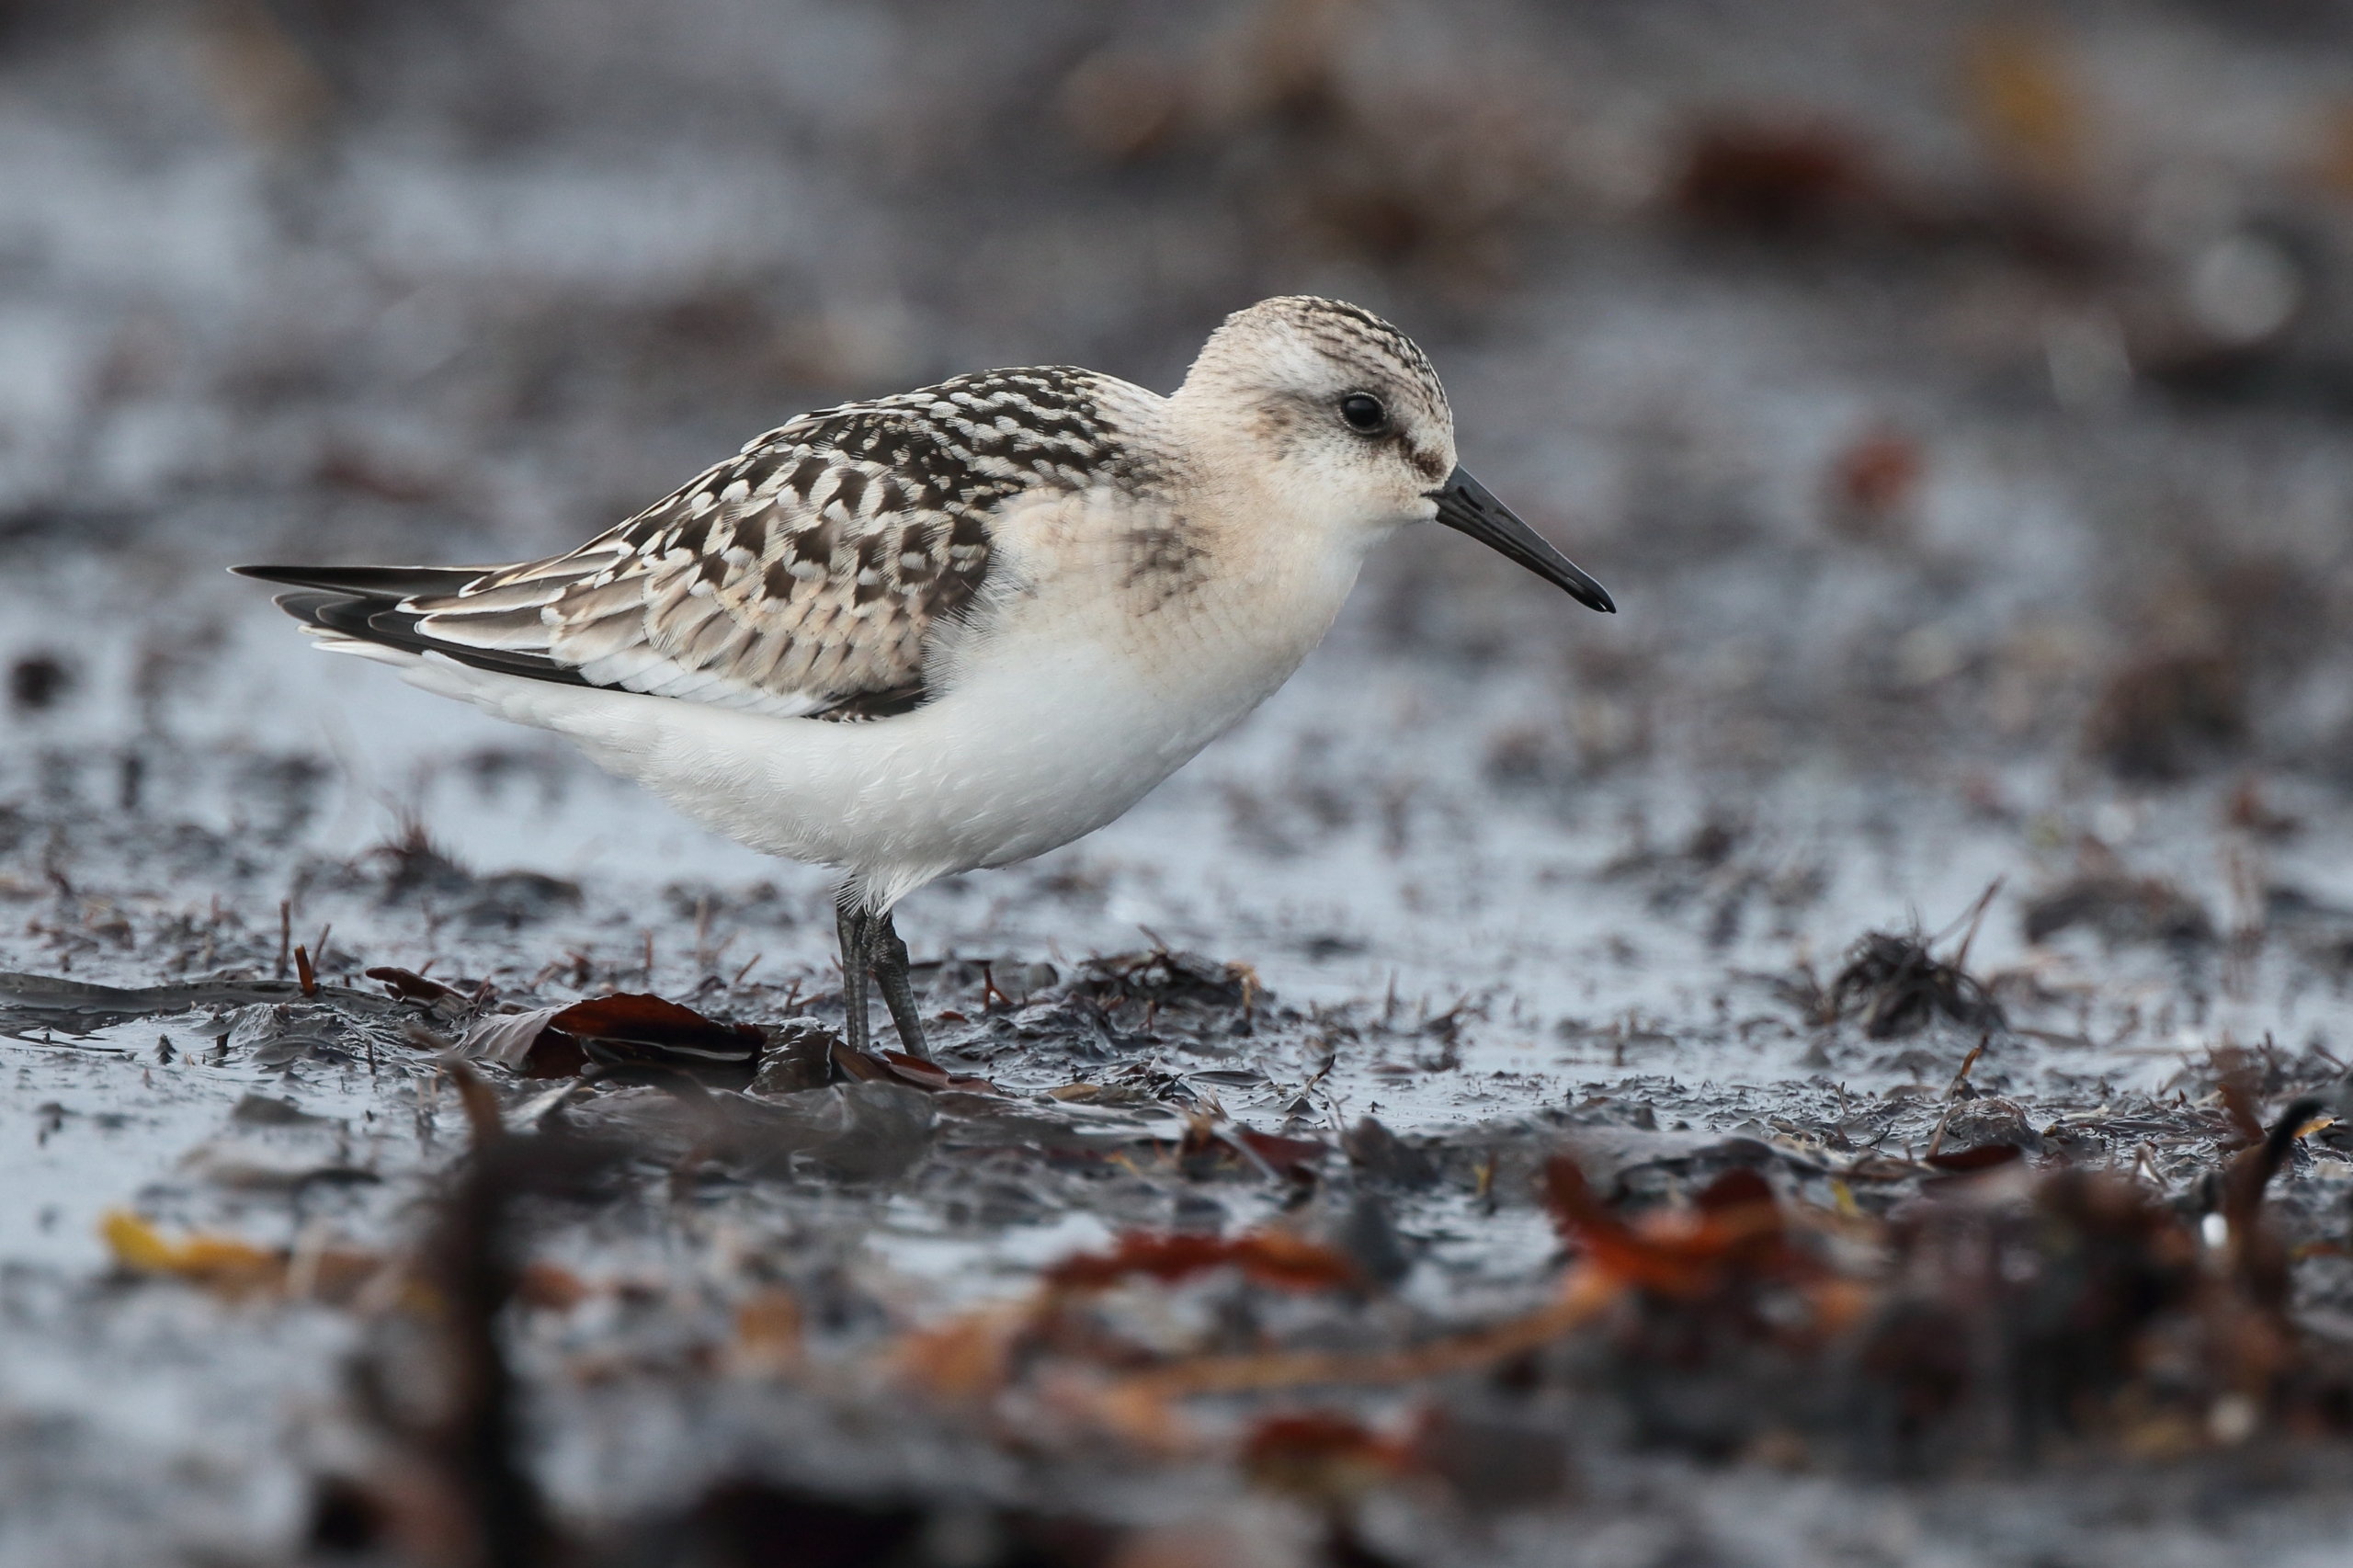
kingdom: Animalia
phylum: Chordata
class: Aves
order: Charadriiformes
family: Scolopacidae
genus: Calidris
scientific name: Calidris alba
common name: Sandløber
